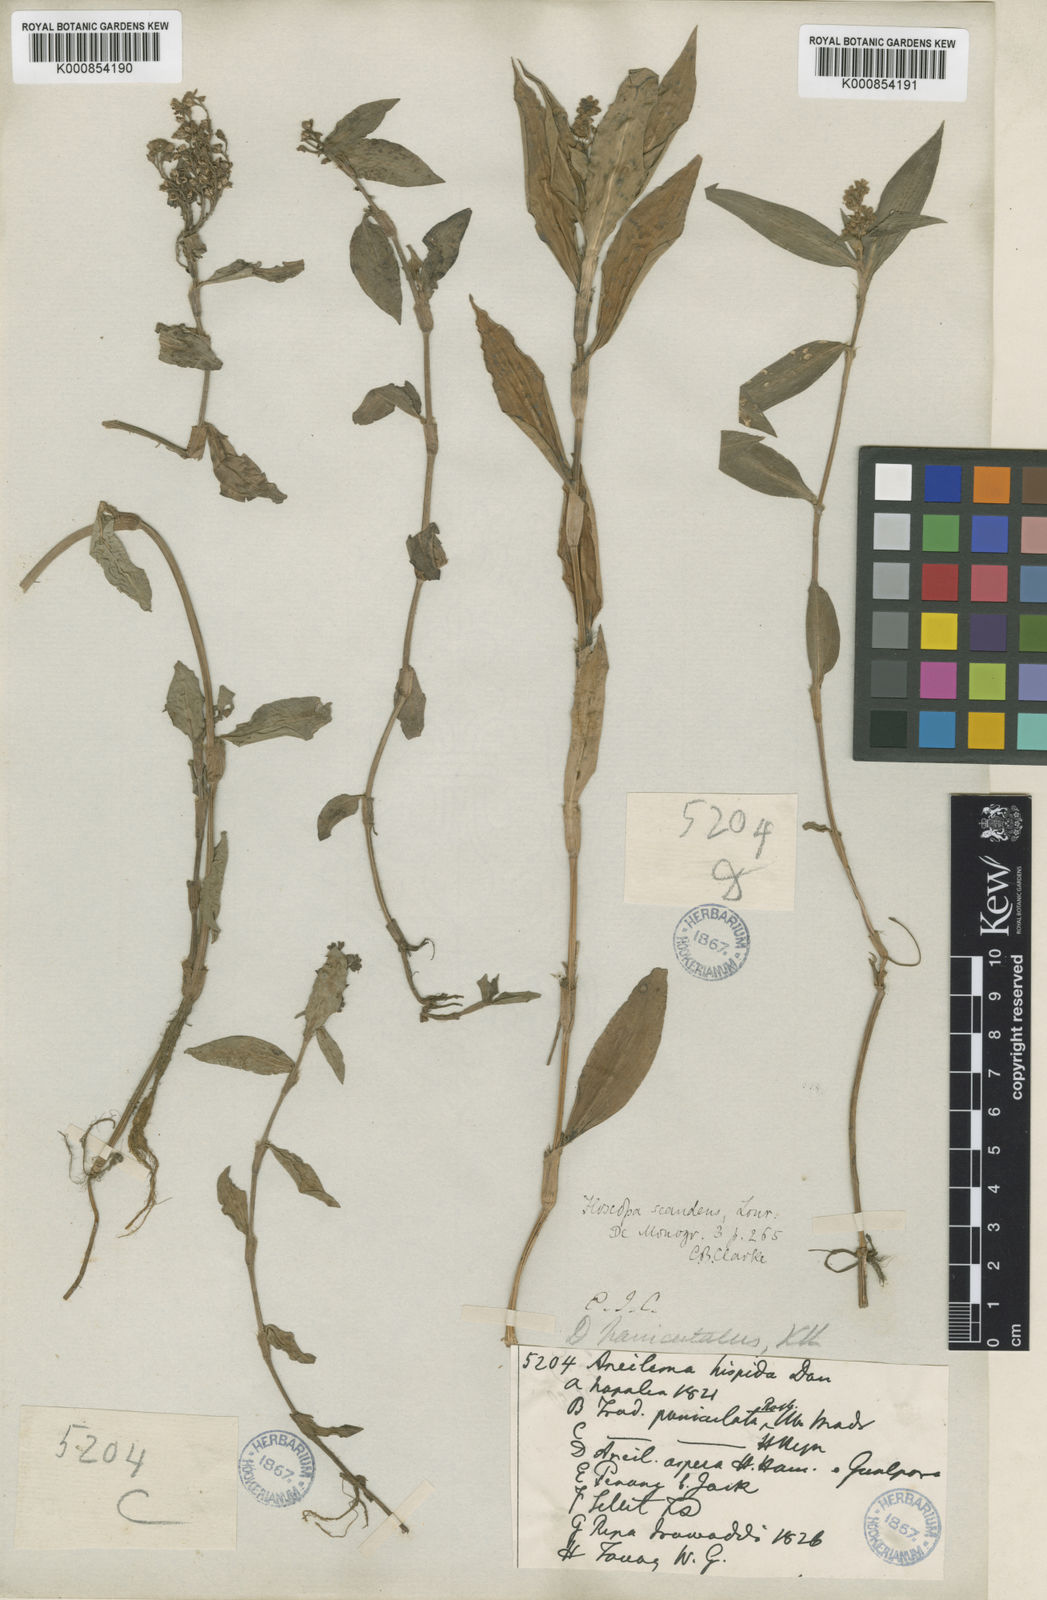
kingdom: Plantae
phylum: Tracheophyta
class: Liliopsida
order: Commelinales
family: Commelinaceae
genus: Floscopa
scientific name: Floscopa scandens
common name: Climbing flower cup
